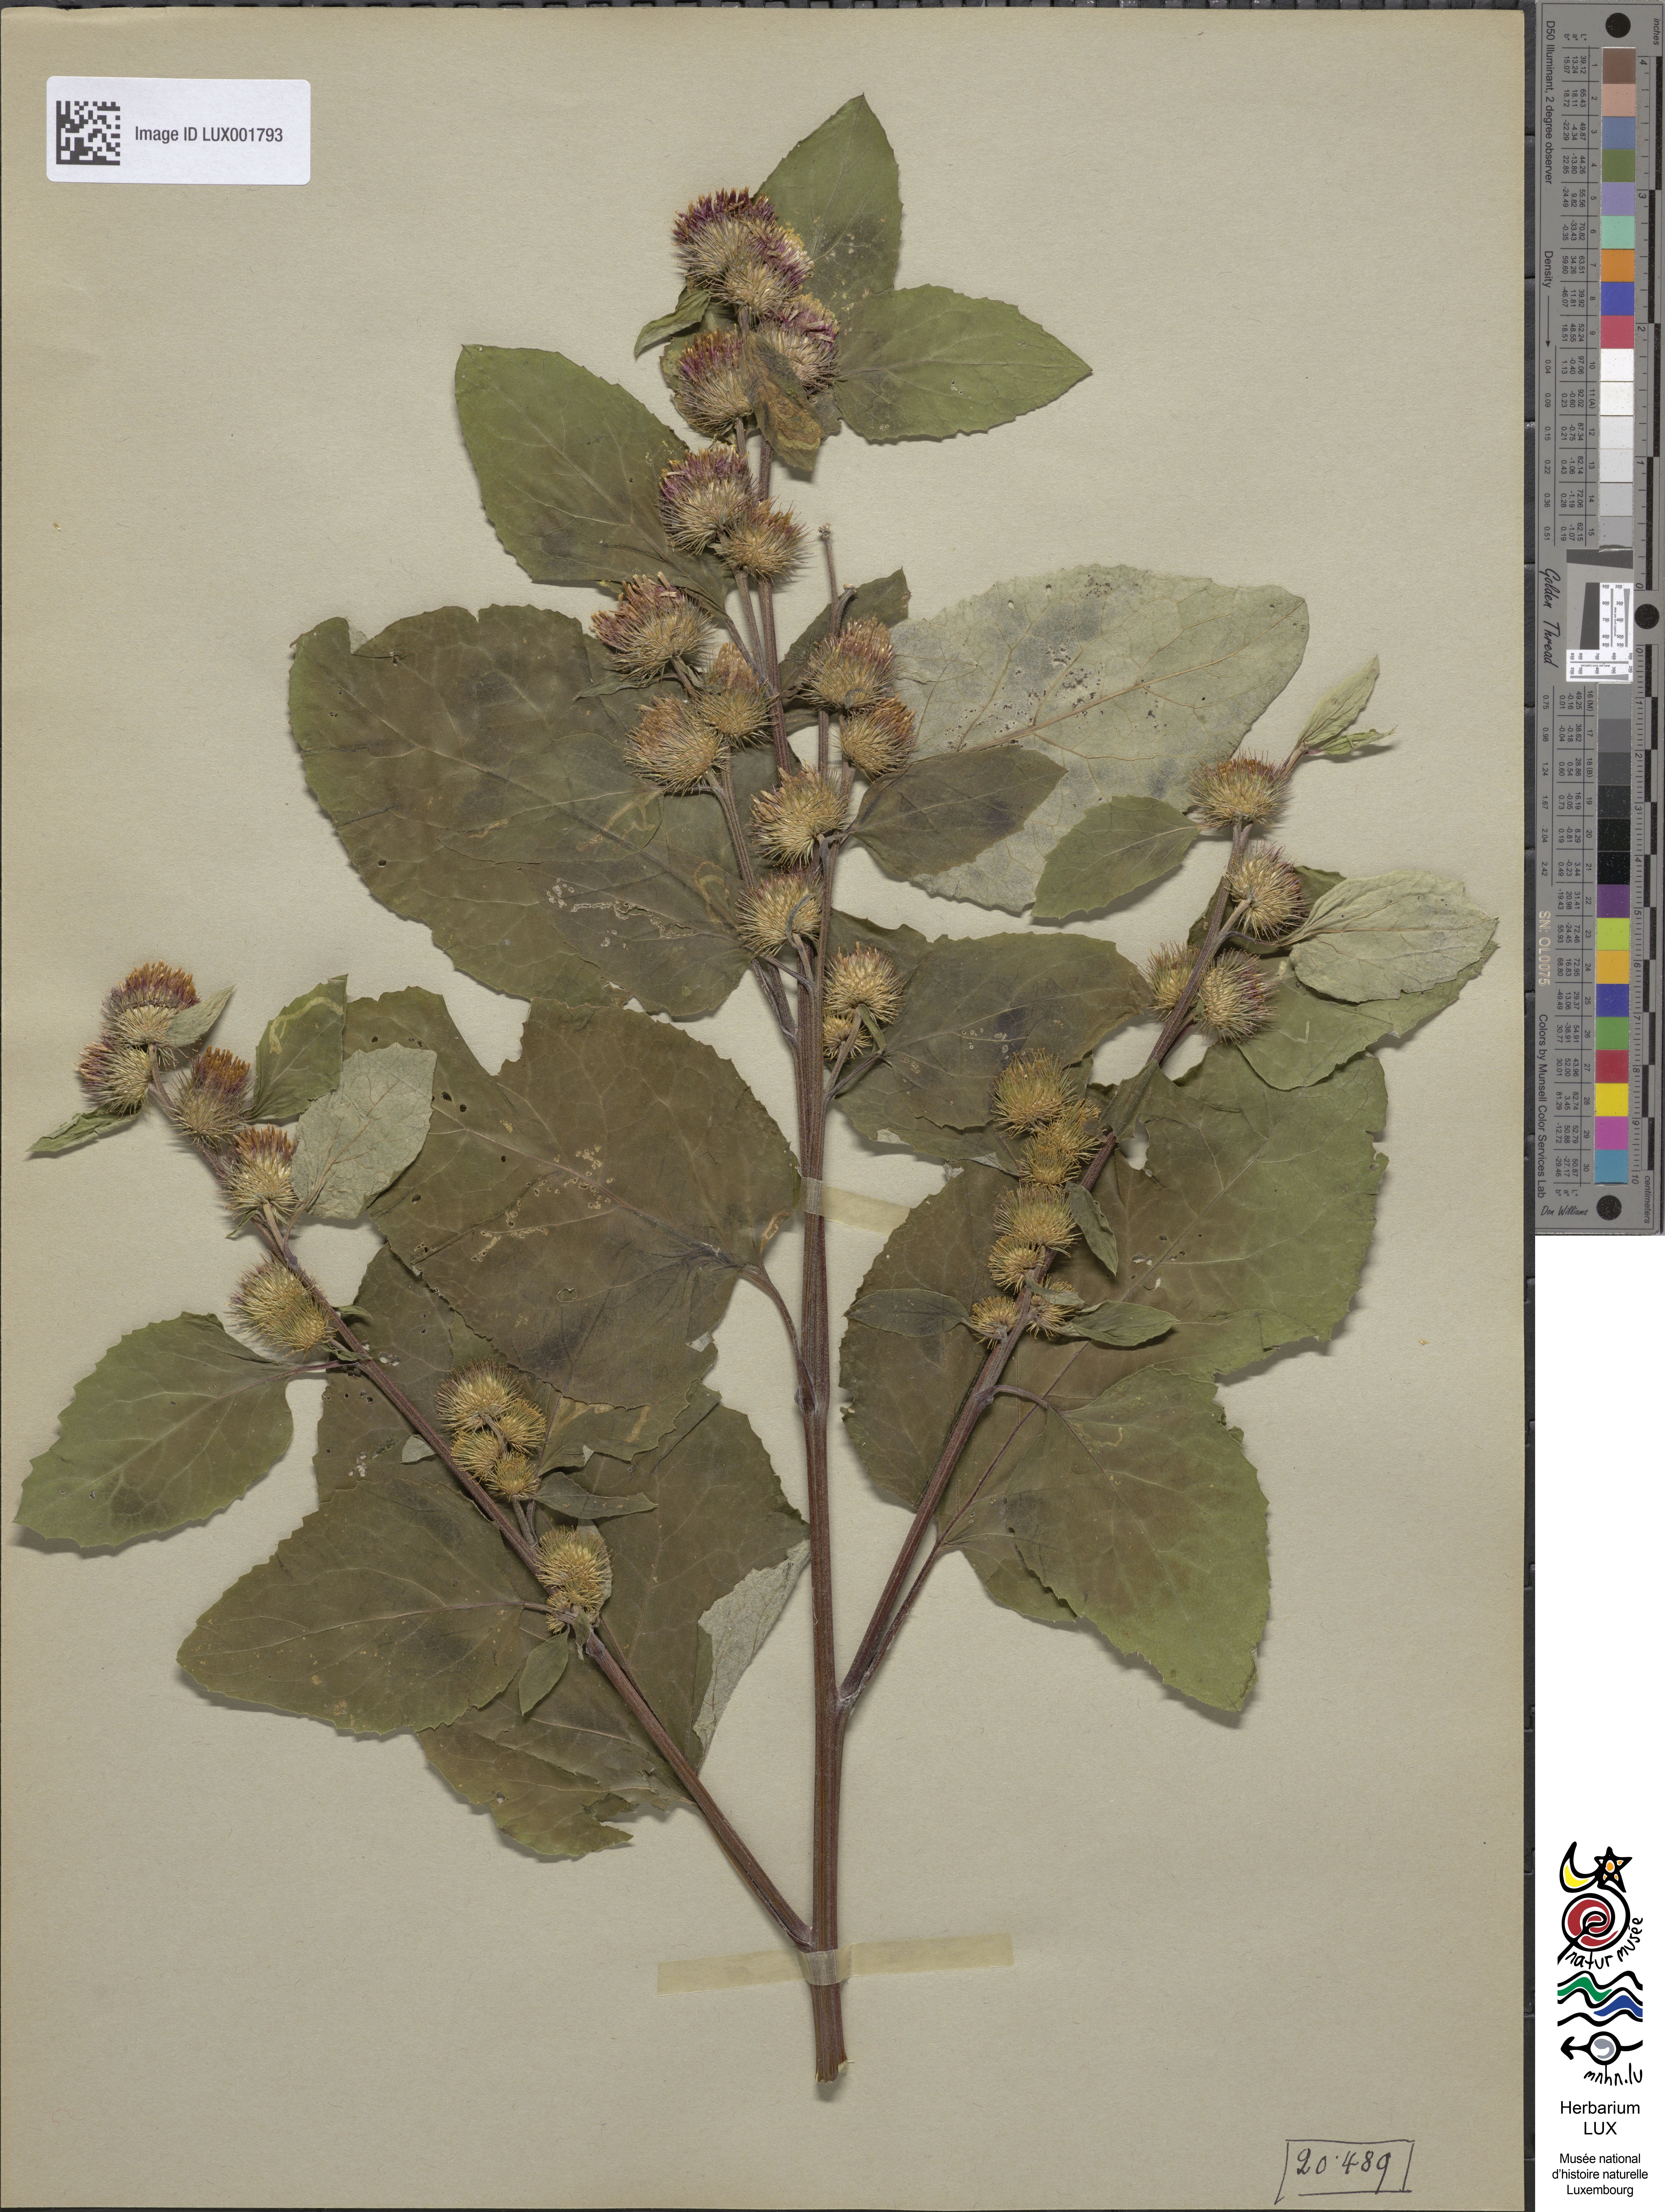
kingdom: Plantae
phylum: Tracheophyta
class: Magnoliopsida
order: Asterales
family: Asteraceae
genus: Arctium
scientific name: Arctium minus
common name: Lesser burdock
